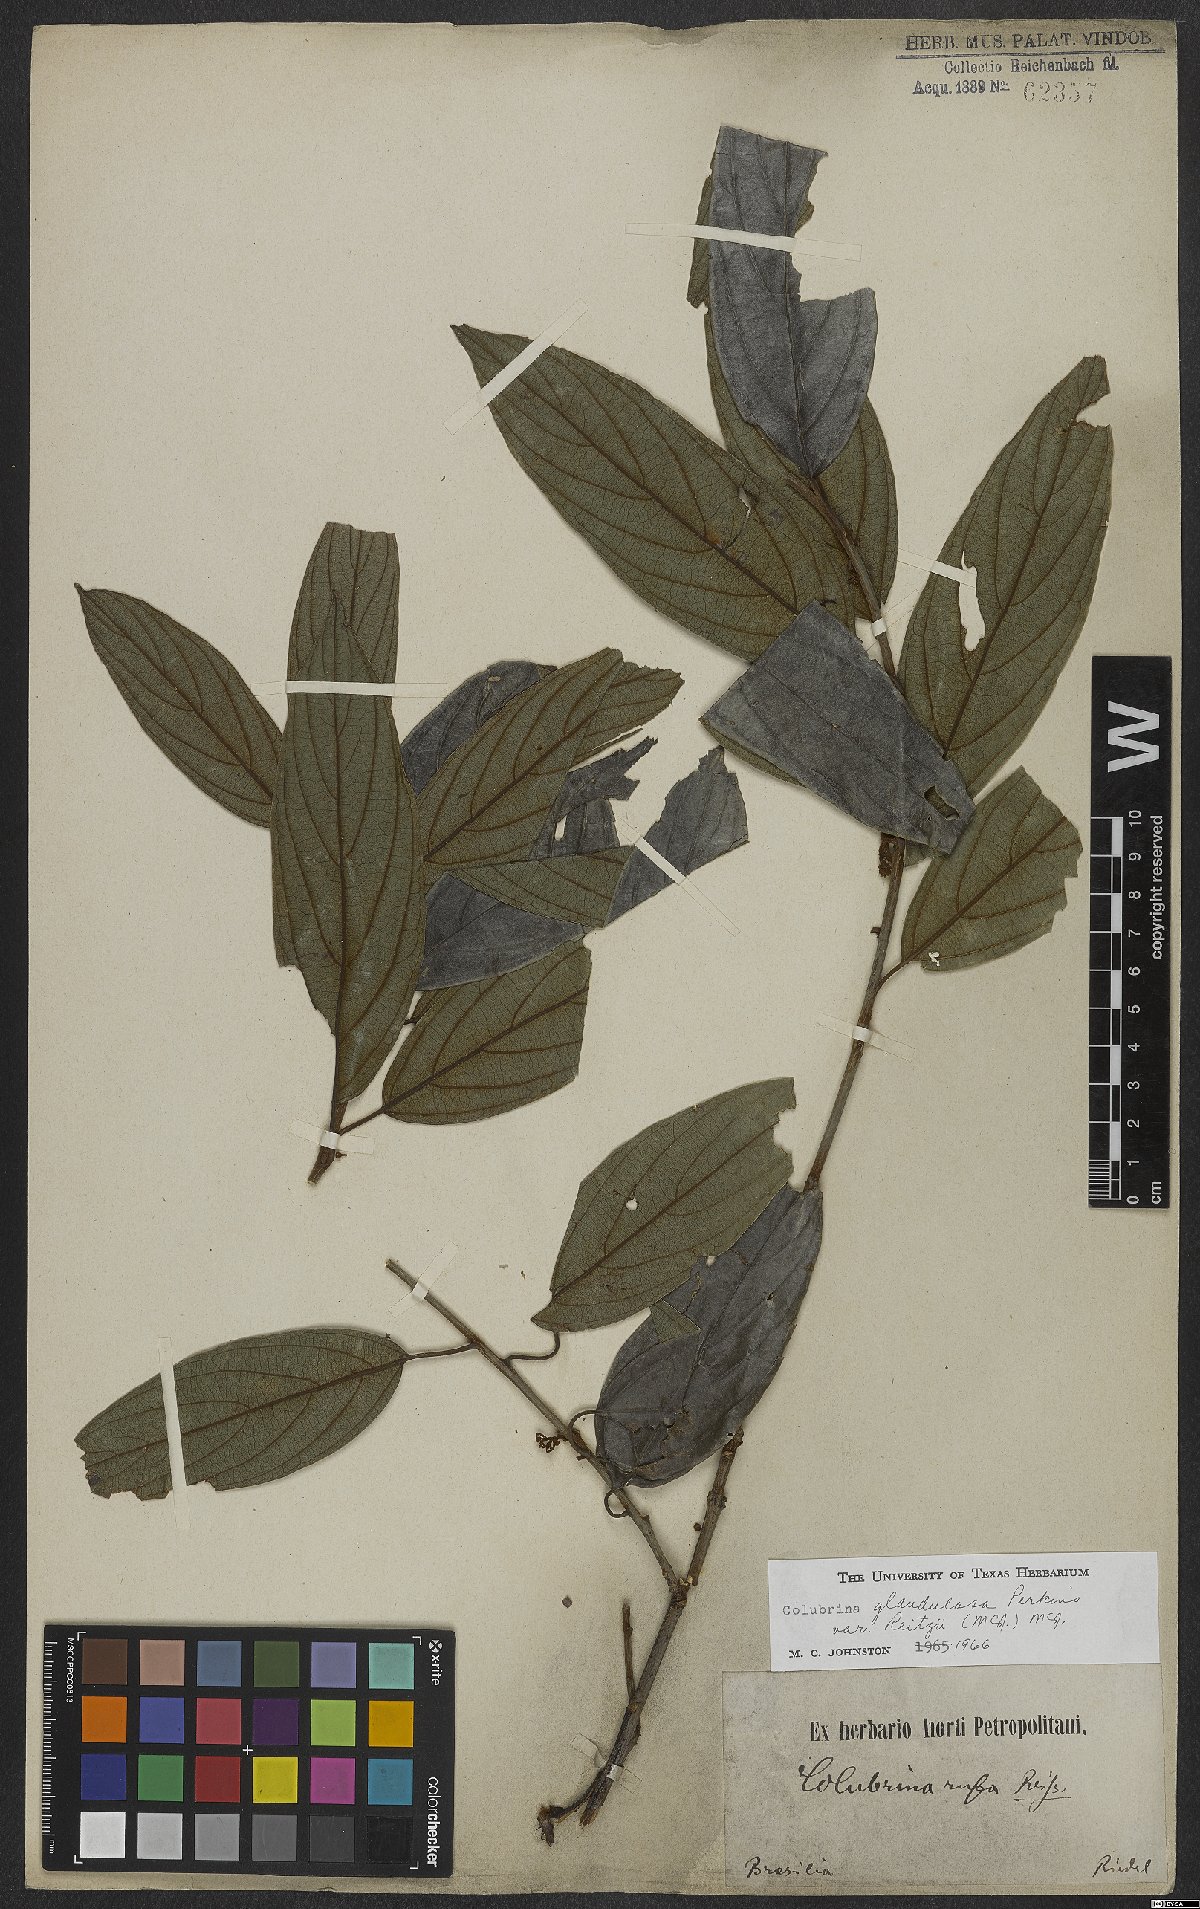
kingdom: Plantae
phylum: Tracheophyta
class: Magnoliopsida
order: Rosales
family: Rhamnaceae
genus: Colubrina
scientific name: Colubrina glandulosa
